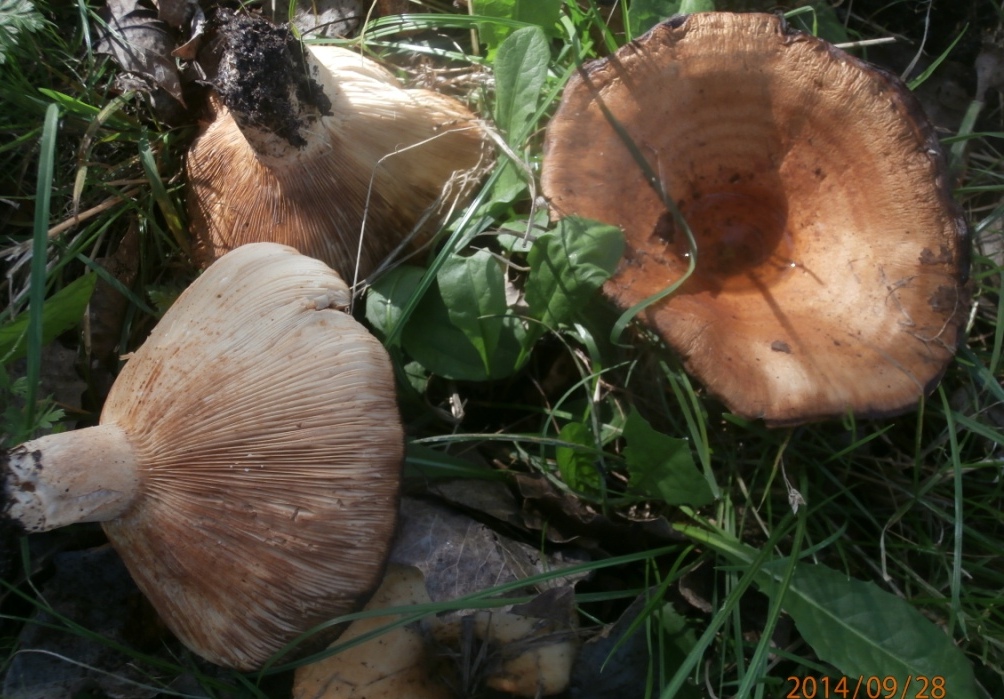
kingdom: Fungi
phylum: Basidiomycota
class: Agaricomycetes
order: Russulales
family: Russulaceae
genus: Lactarius
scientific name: Lactarius evosmus
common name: bæltet mælkehat
